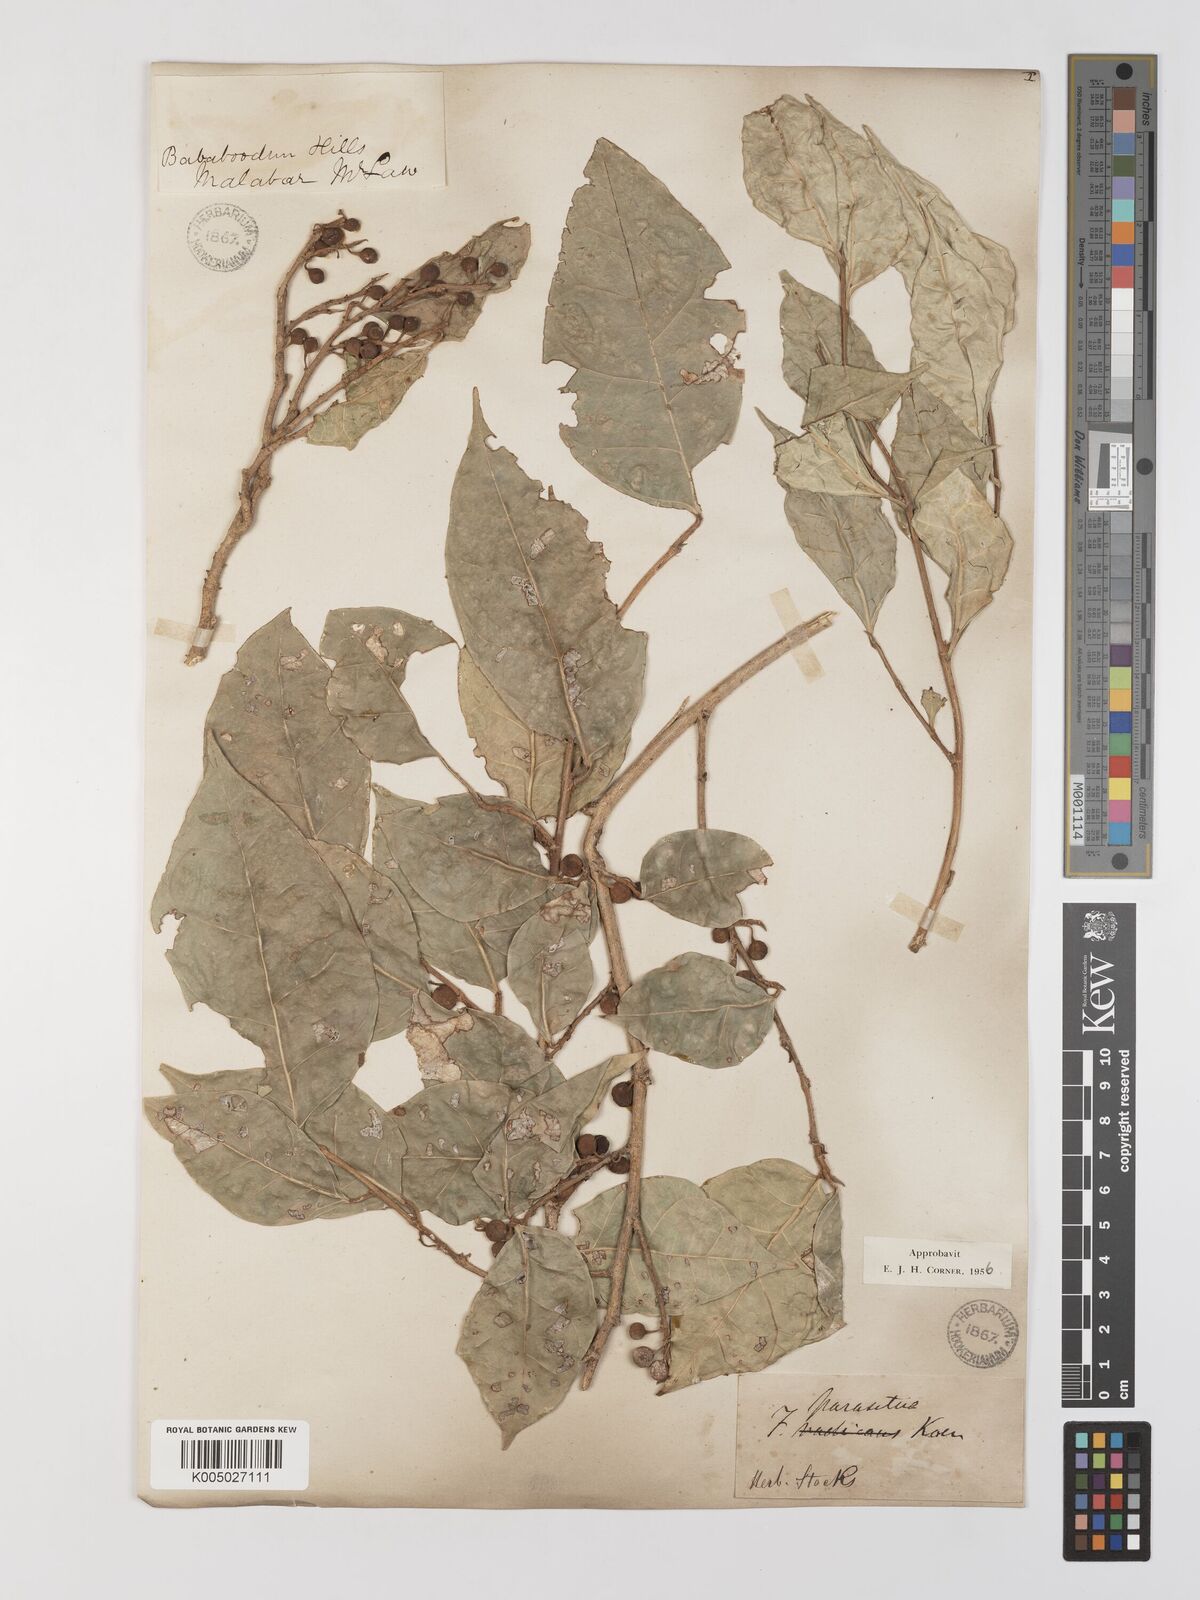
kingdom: Plantae
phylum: Tracheophyta
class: Magnoliopsida
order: Rosales
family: Moraceae
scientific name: Moraceae
